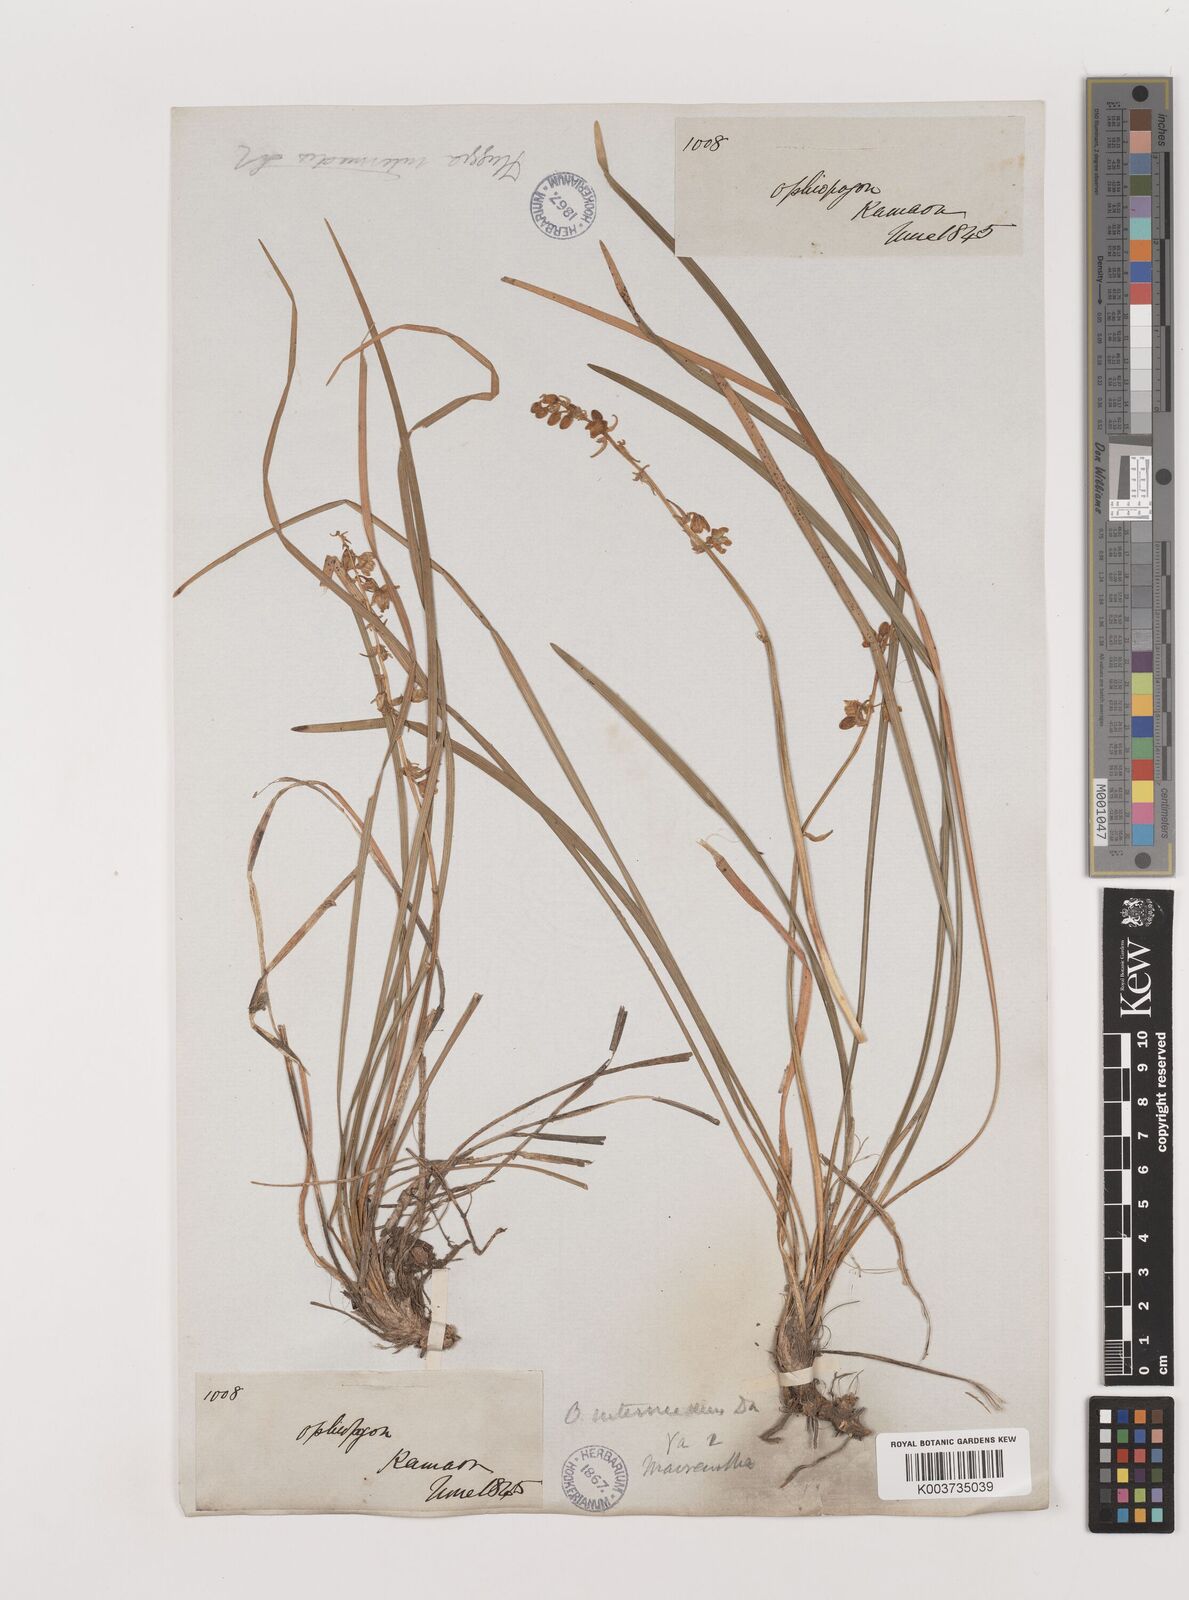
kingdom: Plantae
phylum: Tracheophyta
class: Liliopsida
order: Asparagales
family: Asparagaceae
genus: Ophiopogon
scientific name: Ophiopogon intermedius
